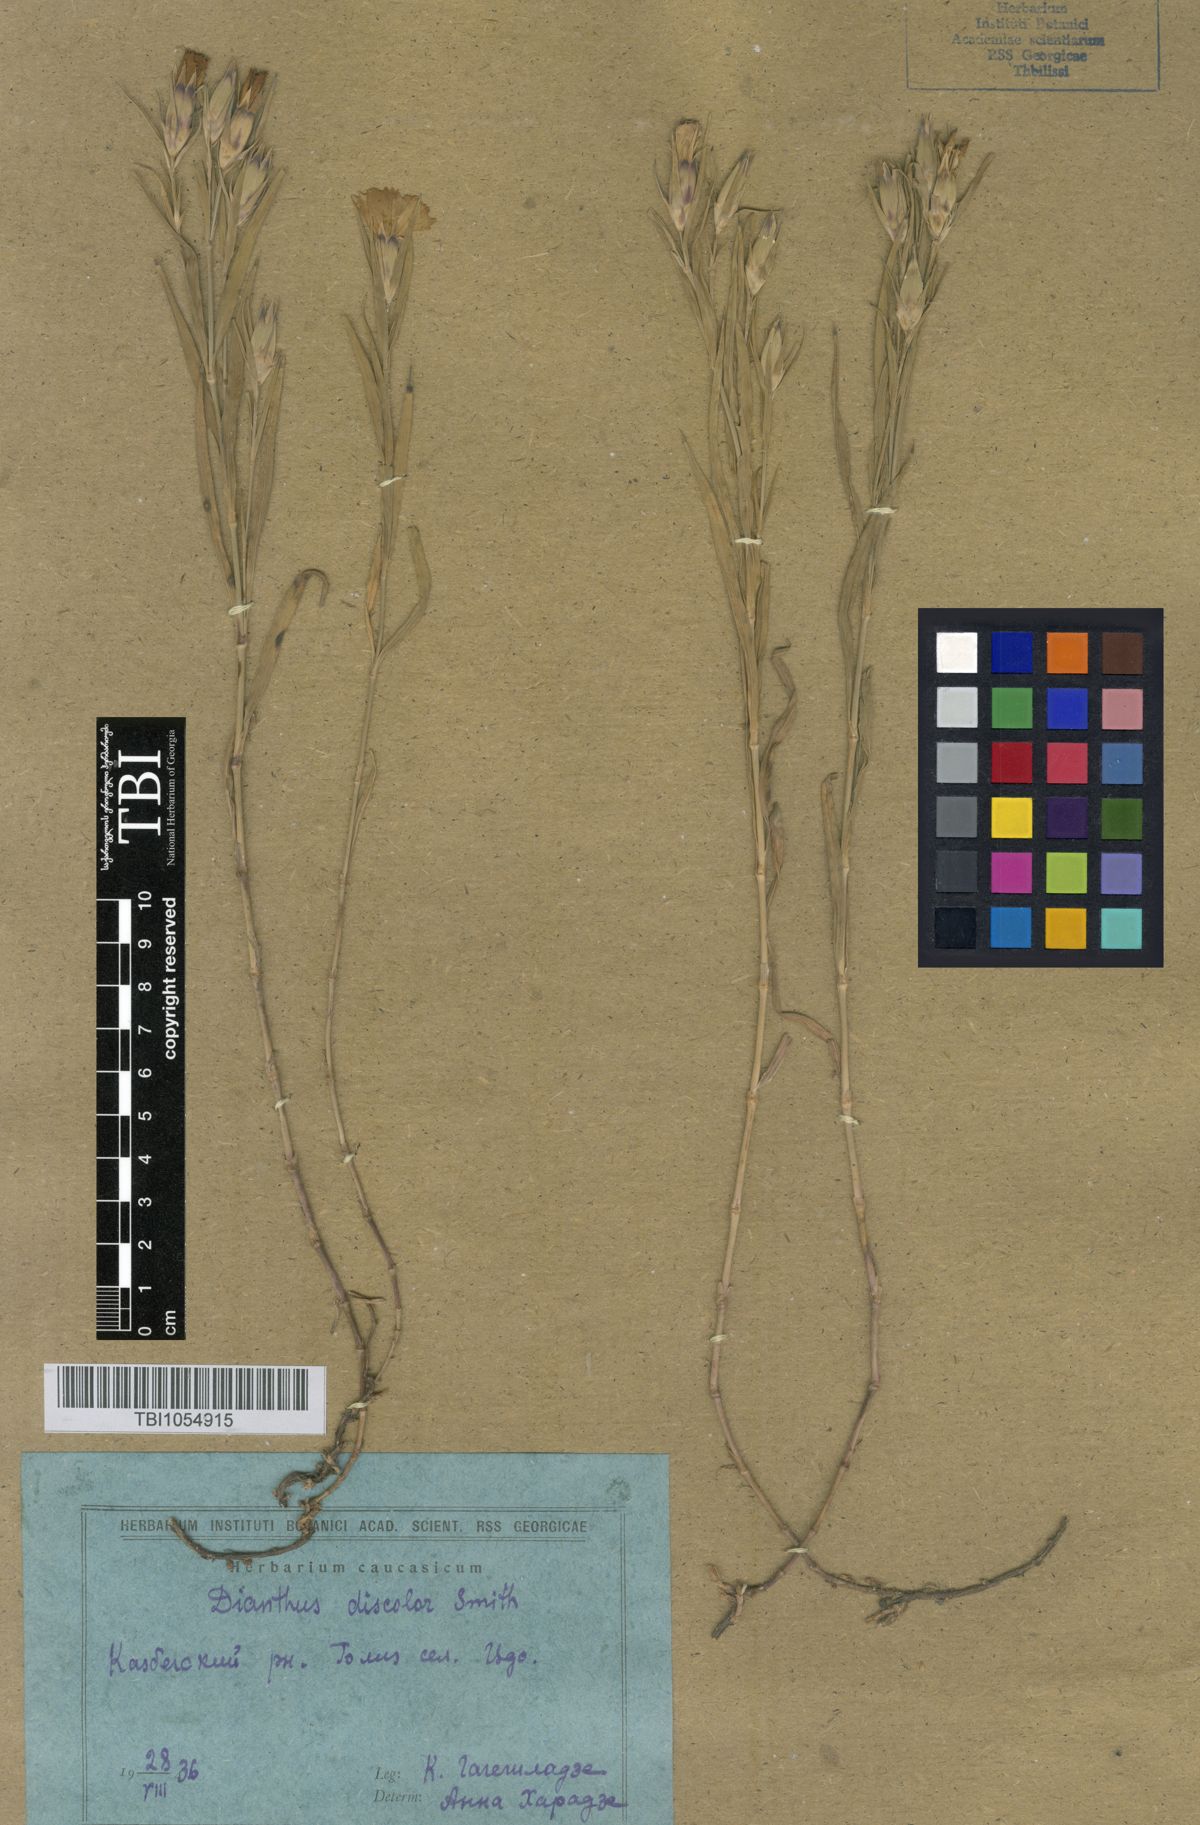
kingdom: Plantae
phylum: Tracheophyta
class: Magnoliopsida
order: Caryophyllales
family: Caryophyllaceae
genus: Dianthus
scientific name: Dianthus caucaseus
